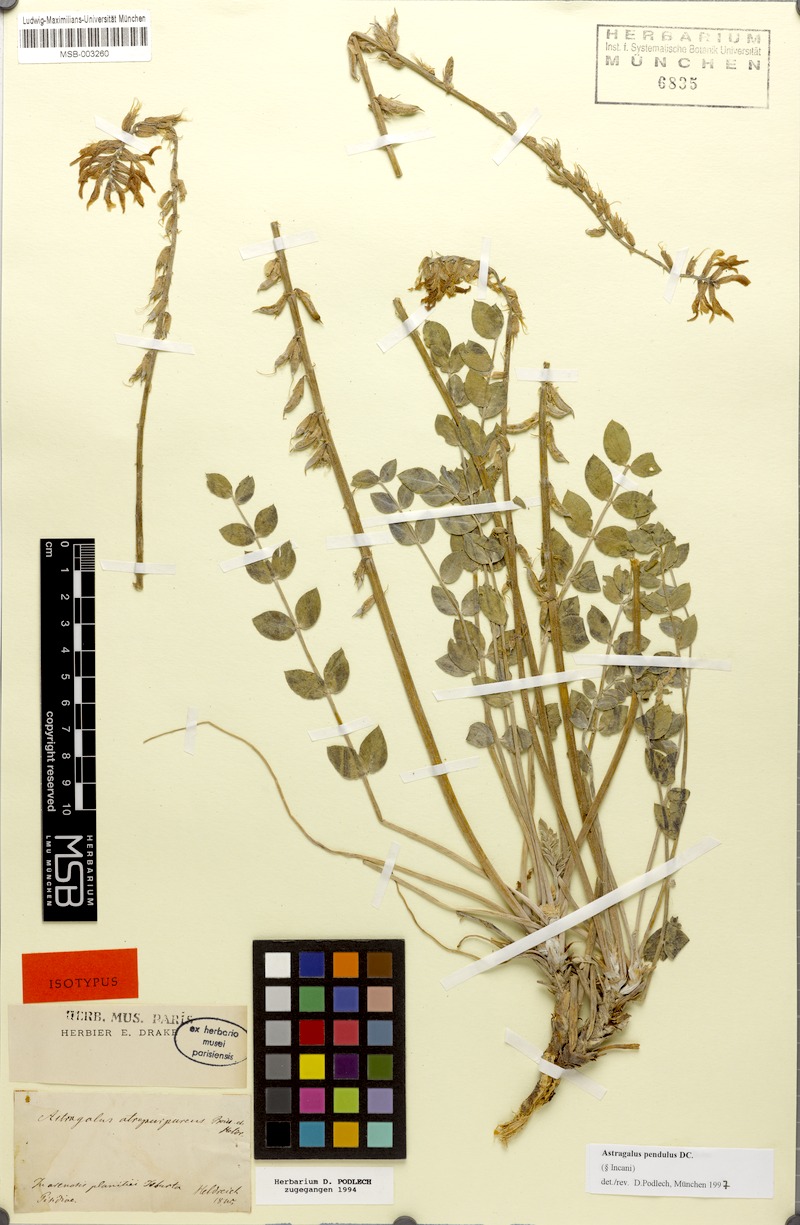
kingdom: Plantae
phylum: Tracheophyta
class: Magnoliopsida
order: Fabales
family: Fabaceae
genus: Astragalus
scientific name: Astragalus pendulus
